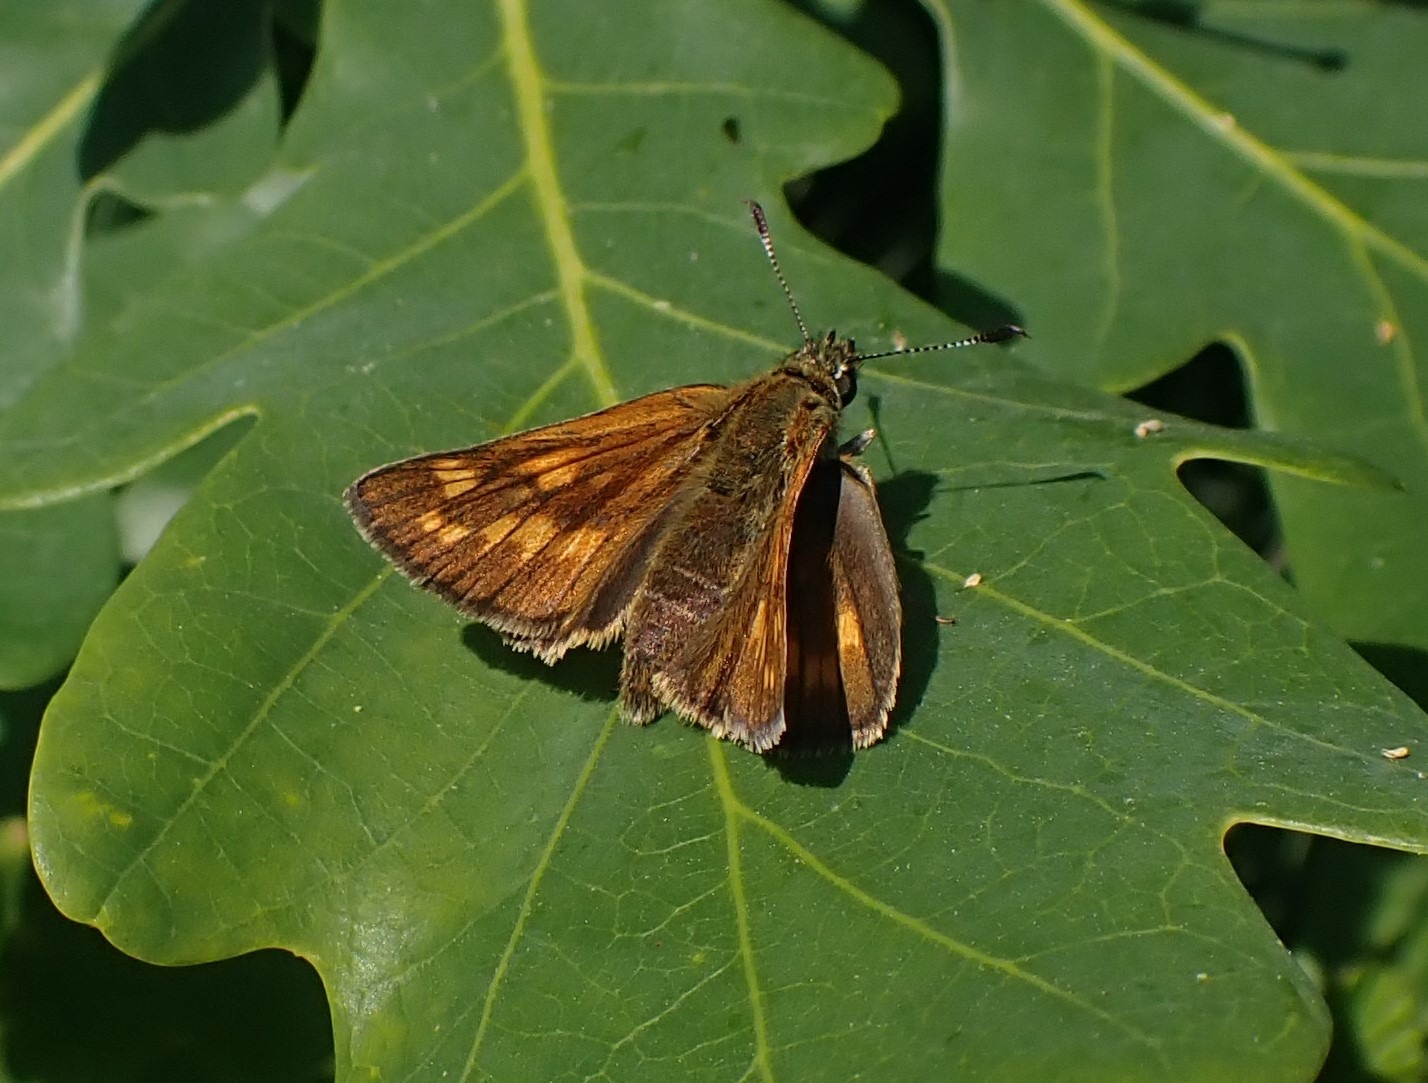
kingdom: Animalia
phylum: Arthropoda
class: Insecta
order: Lepidoptera
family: Hesperiidae
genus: Ochlodes
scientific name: Ochlodes venata
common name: Stor bredpande
